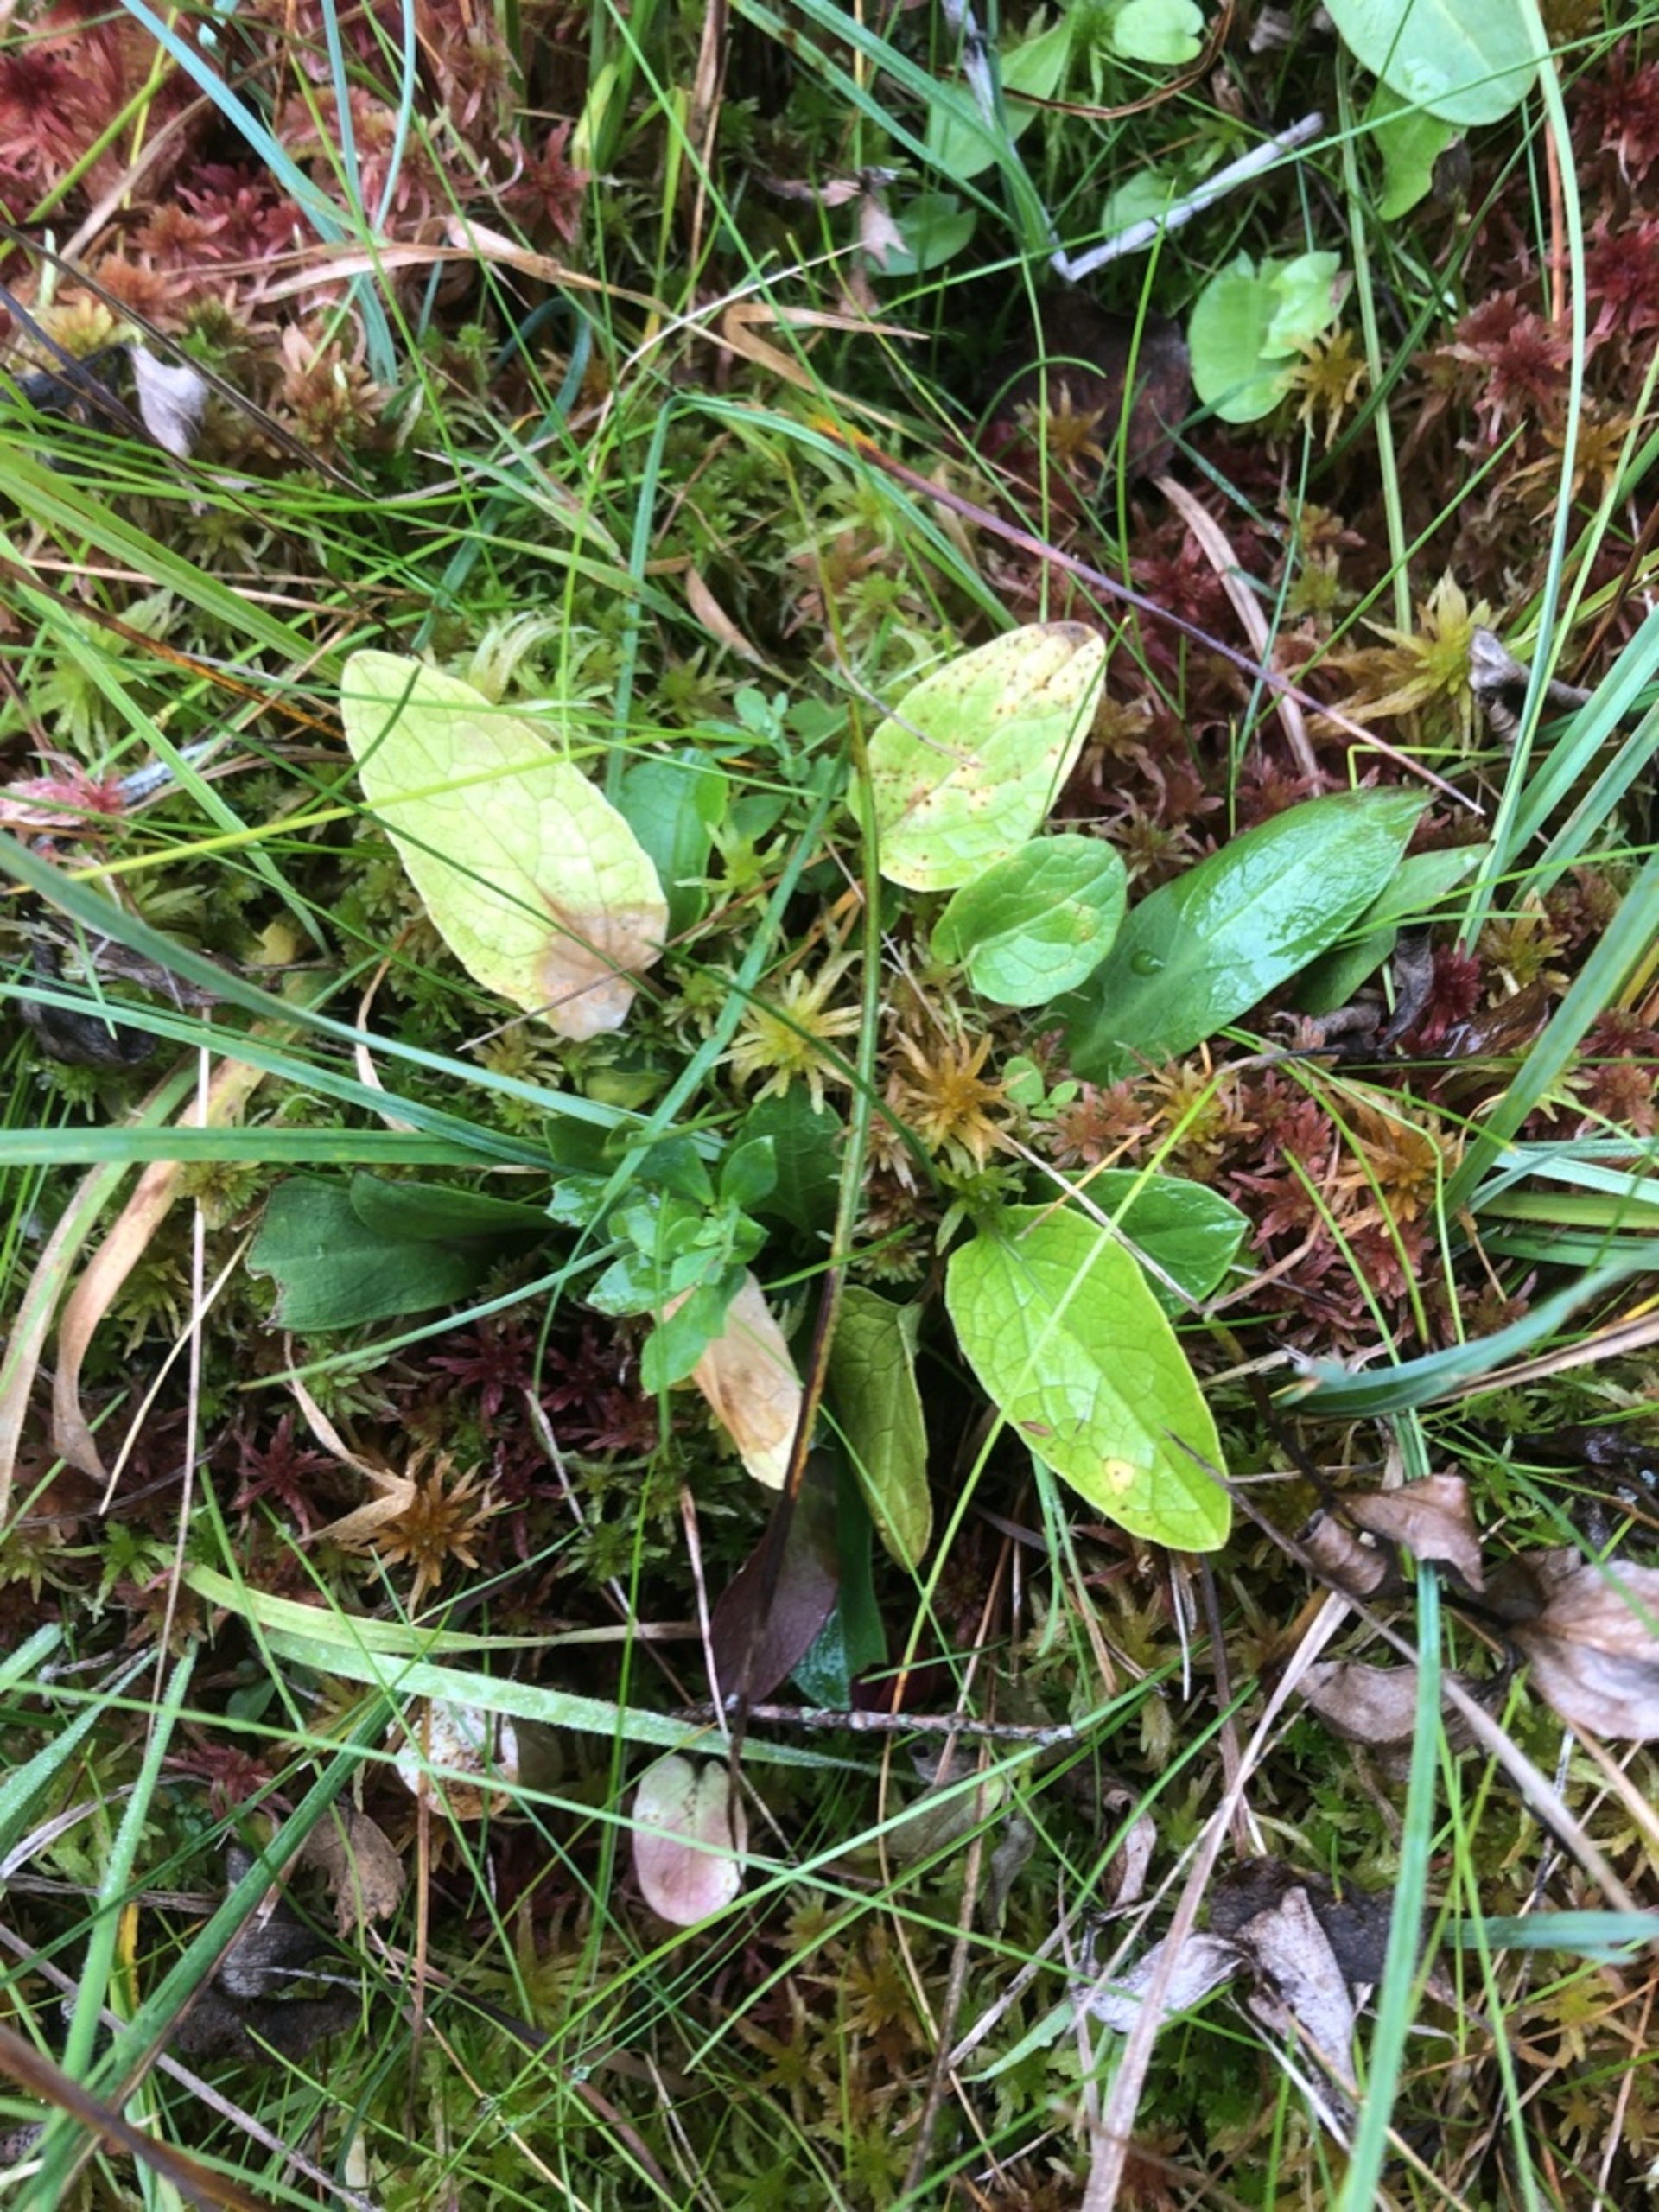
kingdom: Plantae
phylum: Tracheophyta
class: Magnoliopsida
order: Dipsacales
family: Caprifoliaceae
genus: Valeriana
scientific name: Valeriana dioica
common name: Tvebo baldrian
